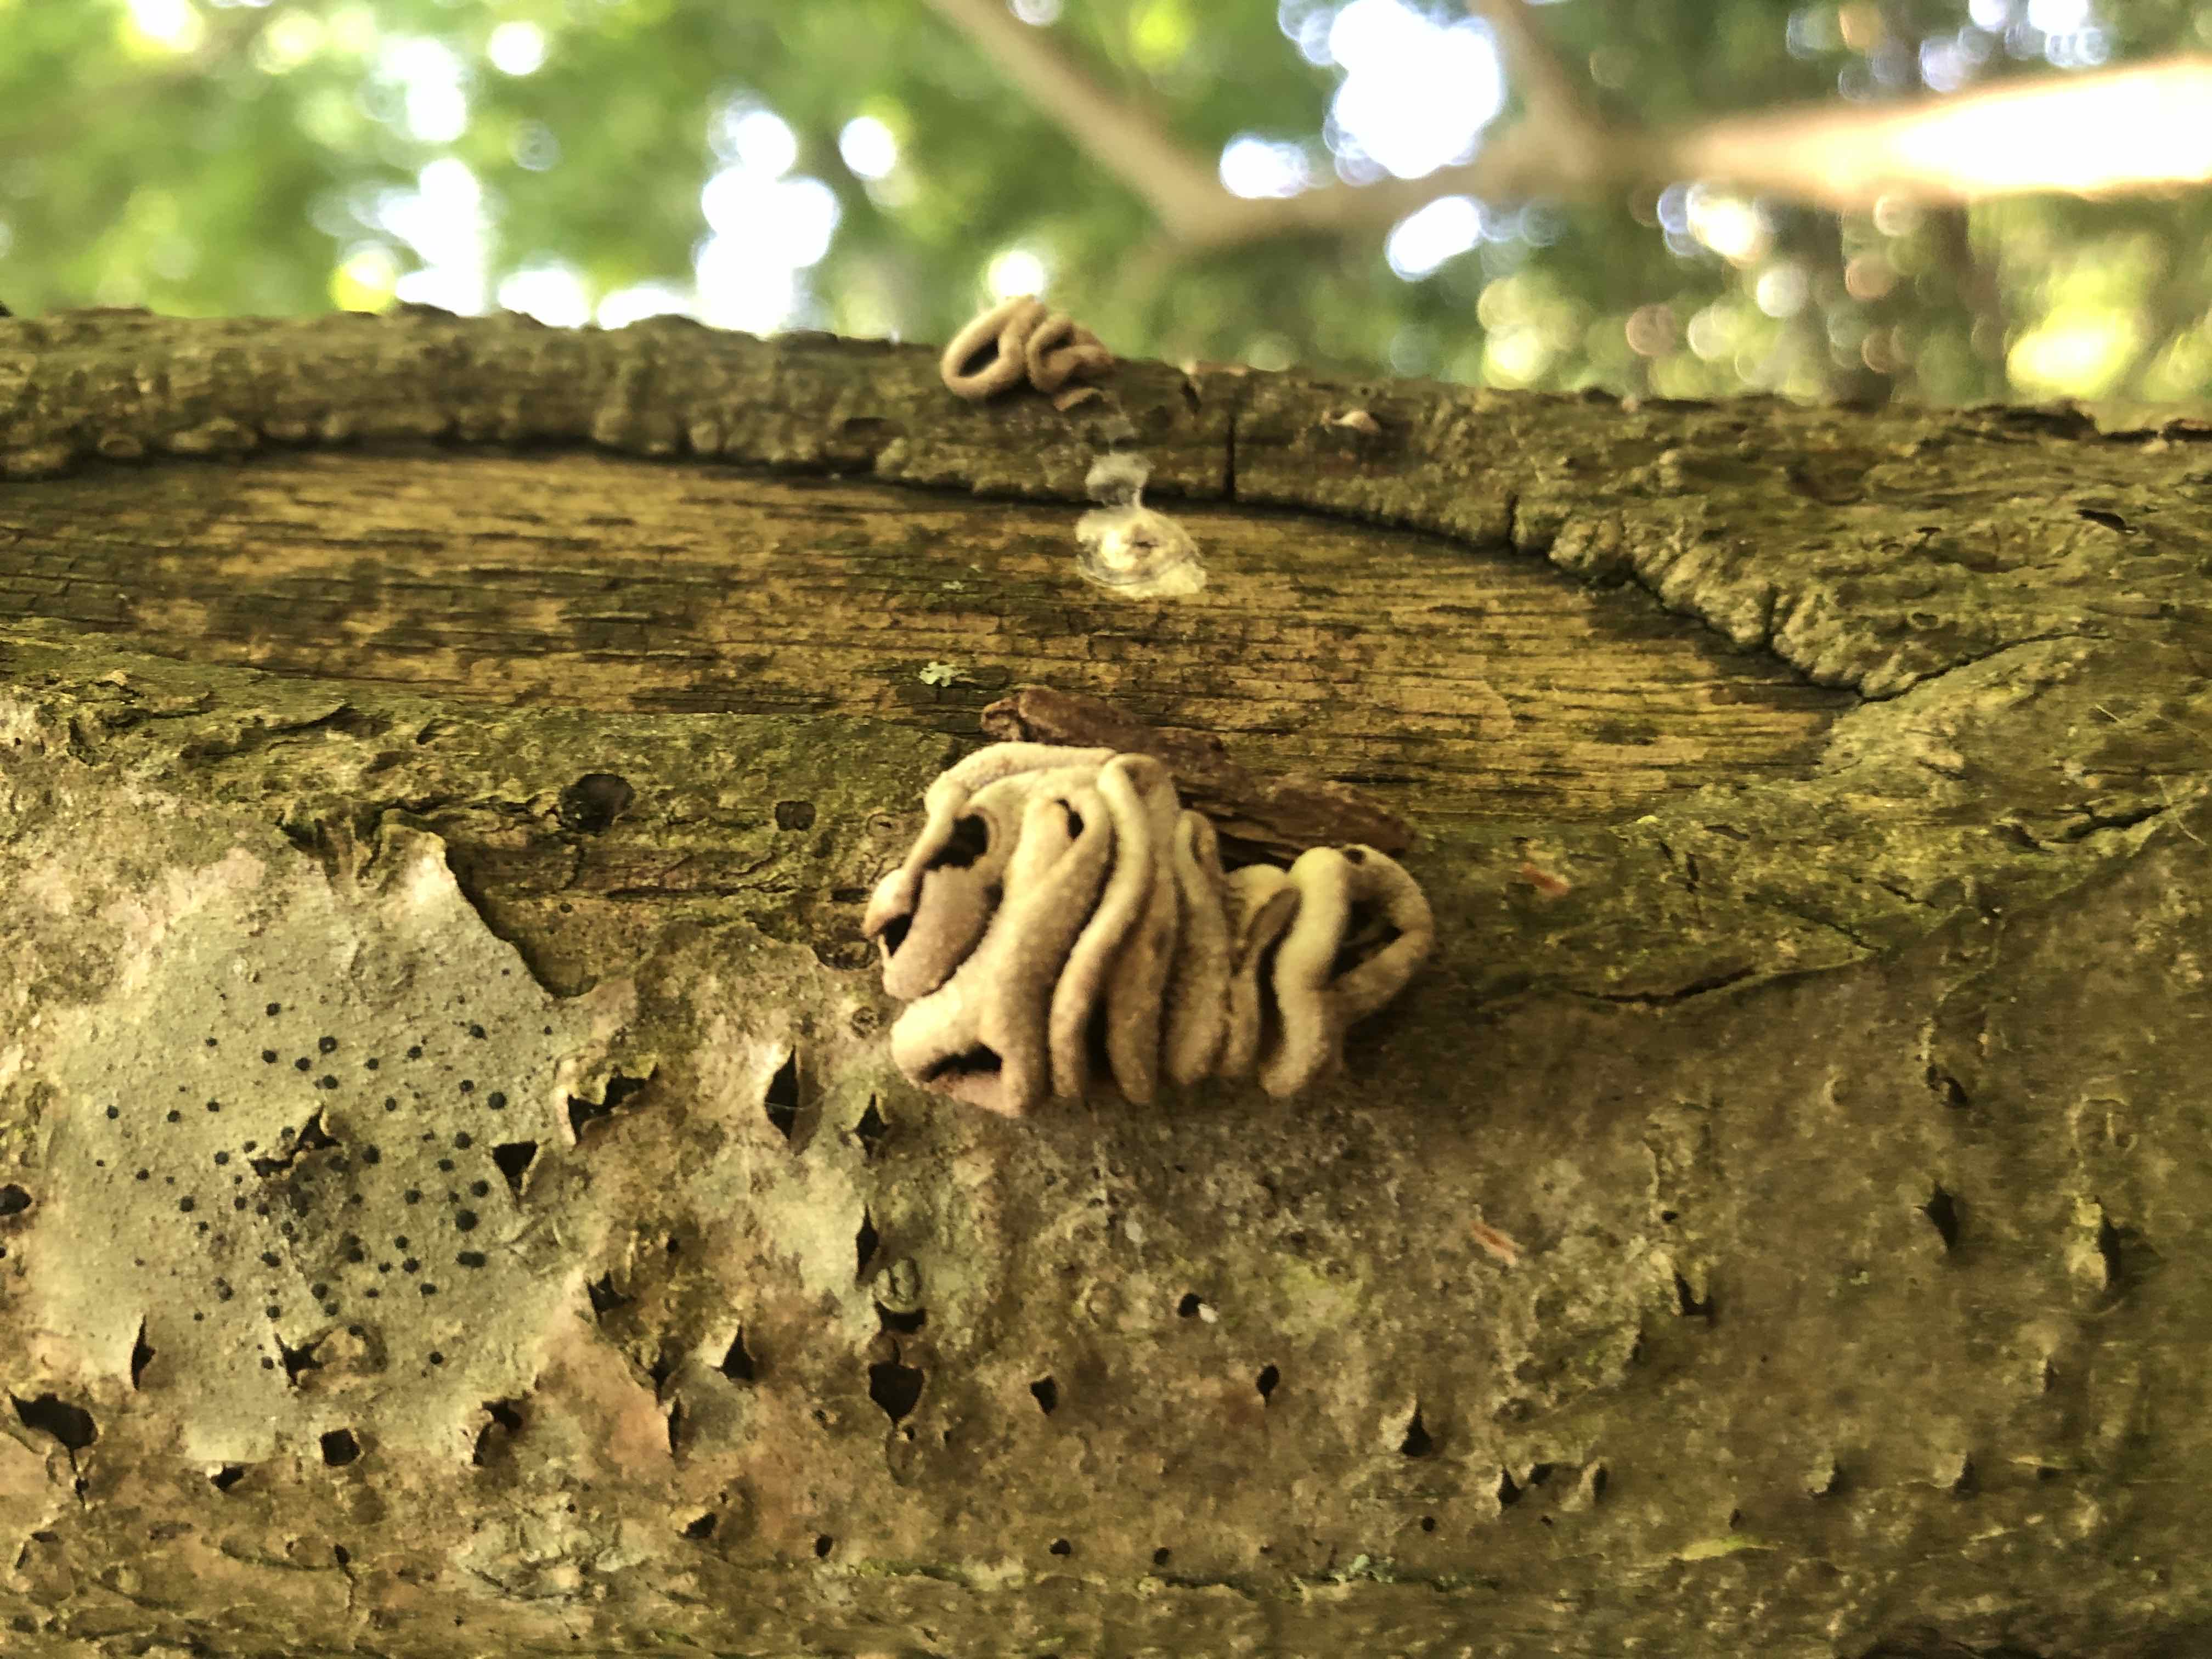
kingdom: Fungi
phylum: Ascomycota
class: Leotiomycetes
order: Helotiales
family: Cenangiaceae
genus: Encoelia
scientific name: Encoelia furfuracea
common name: hassel-læderskive
